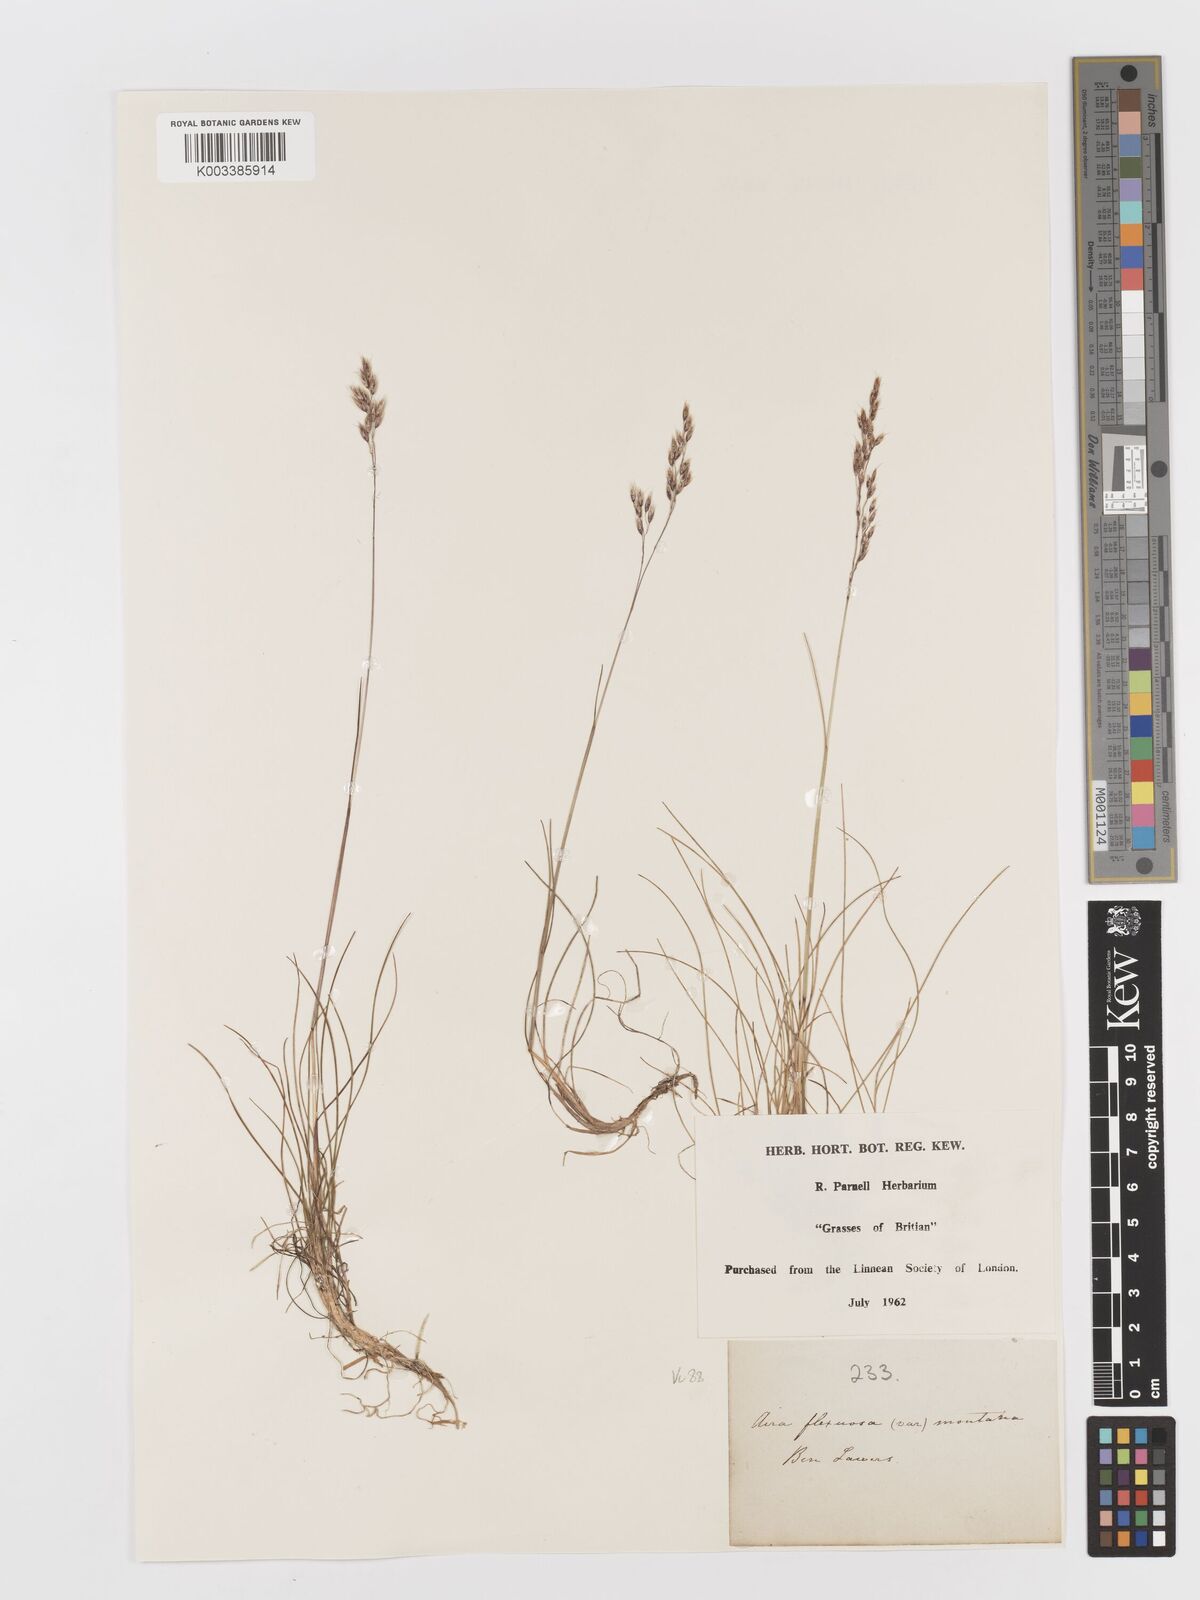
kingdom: Plantae
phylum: Tracheophyta
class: Liliopsida
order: Poales
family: Poaceae
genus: Avenella
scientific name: Avenella flexuosa
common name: Wavy hairgrass
